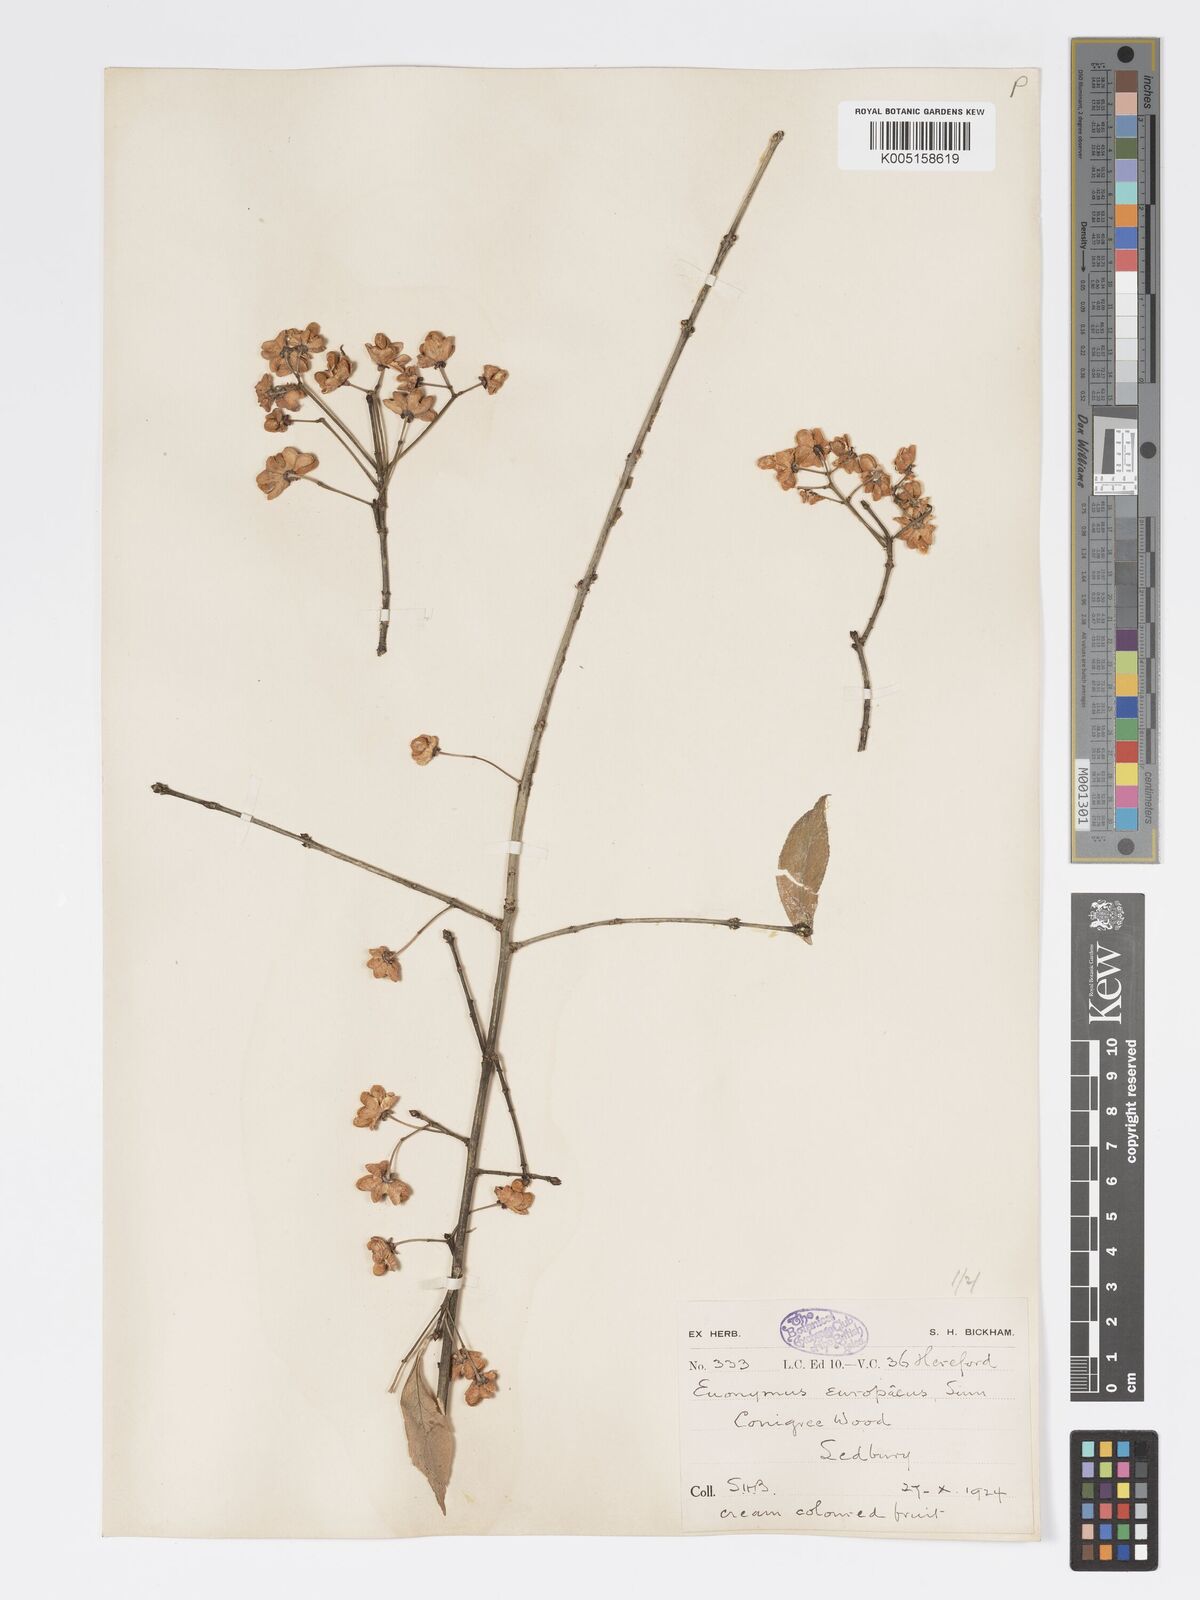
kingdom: Plantae
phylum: Tracheophyta
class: Magnoliopsida
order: Celastrales
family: Celastraceae
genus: Euonymus
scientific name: Euonymus europaeus
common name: Spindle
